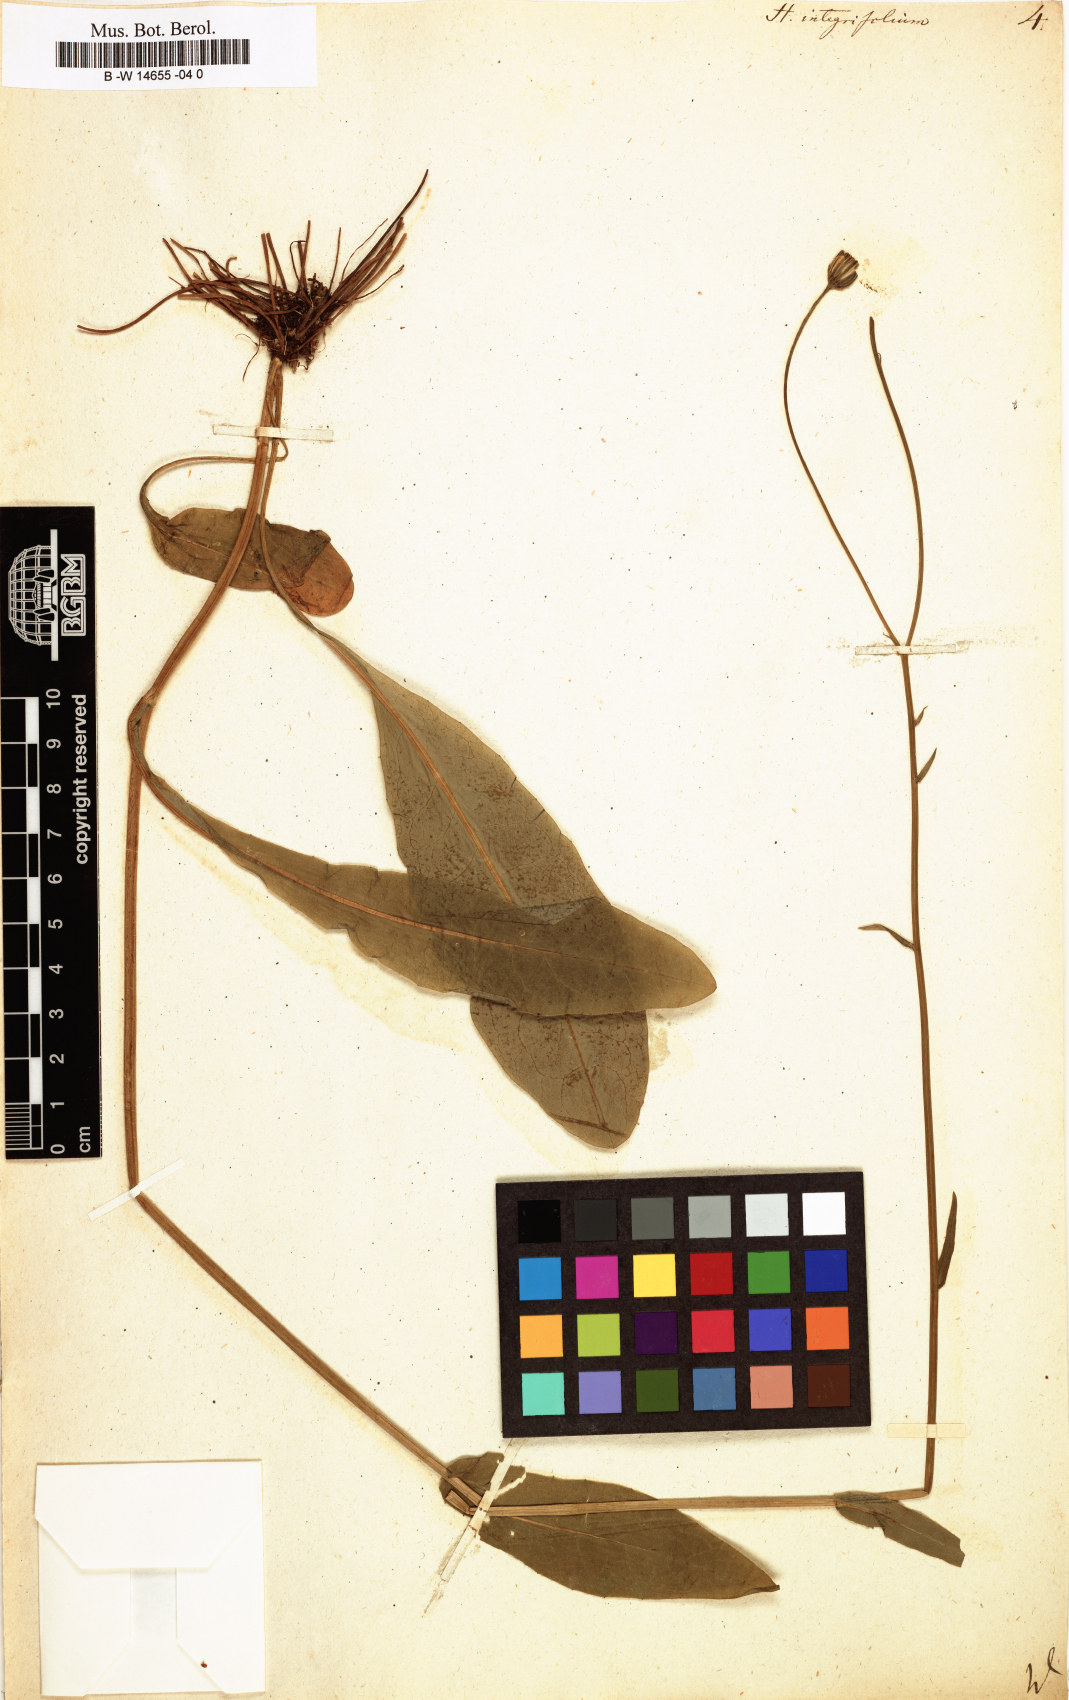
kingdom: Plantae
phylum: Tracheophyta
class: Magnoliopsida
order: Asterales
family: Asteraceae
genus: Hieracium
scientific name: Hieracium integrifolium
